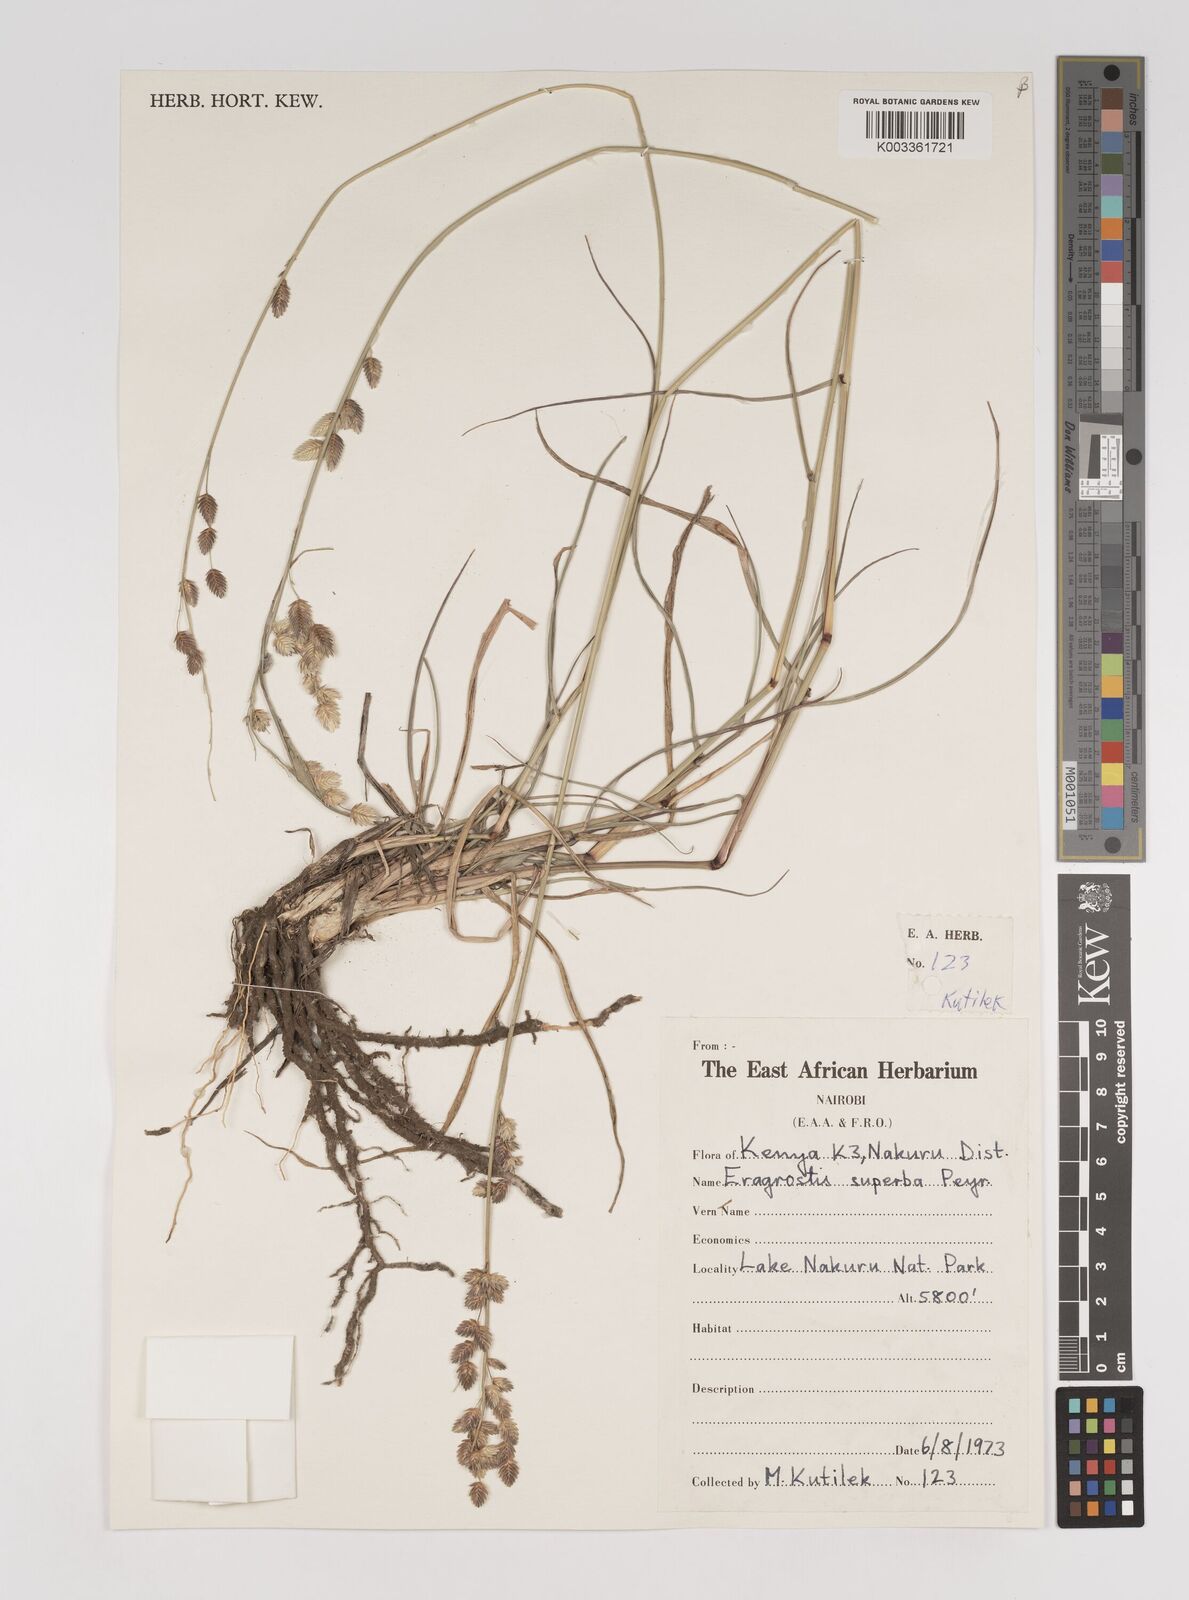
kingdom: Plantae
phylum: Tracheophyta
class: Liliopsida
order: Poales
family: Poaceae
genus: Eragrostis
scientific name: Eragrostis superba
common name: Wilman lovegrass
